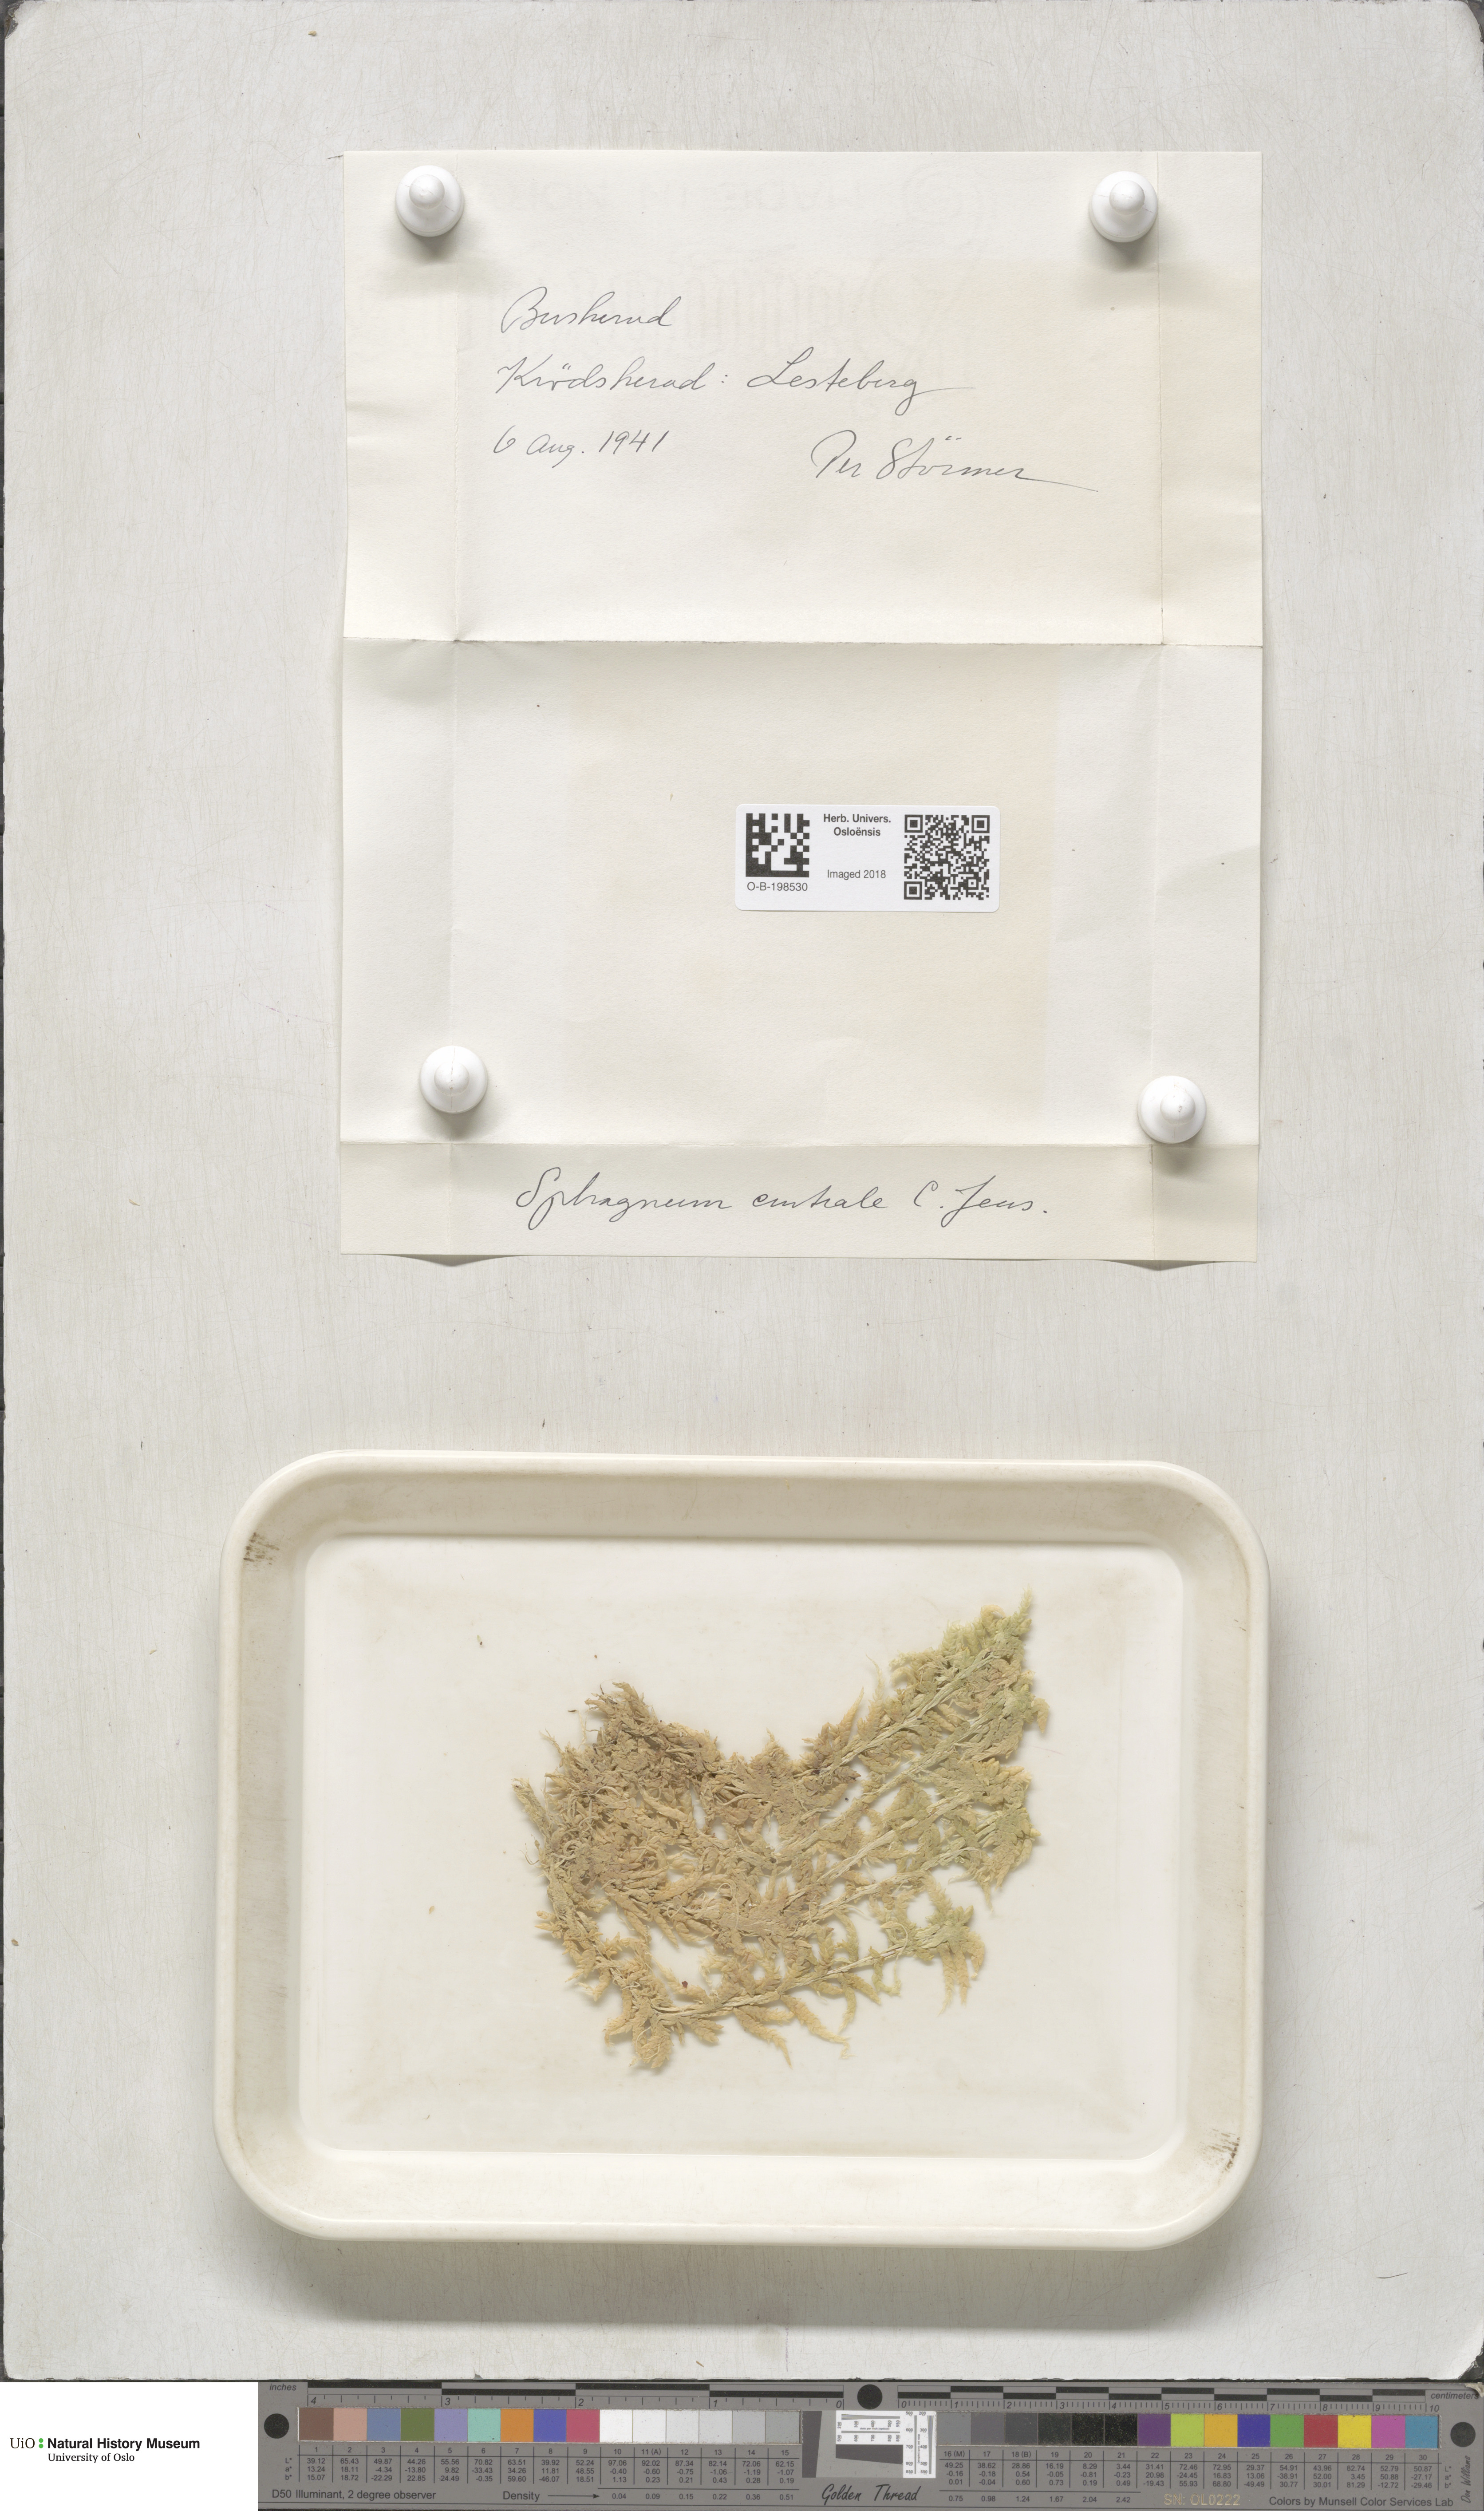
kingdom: Plantae
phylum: Bryophyta
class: Sphagnopsida
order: Sphagnales
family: Sphagnaceae
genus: Sphagnum
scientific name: Sphagnum centrale
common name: Central peat moss
